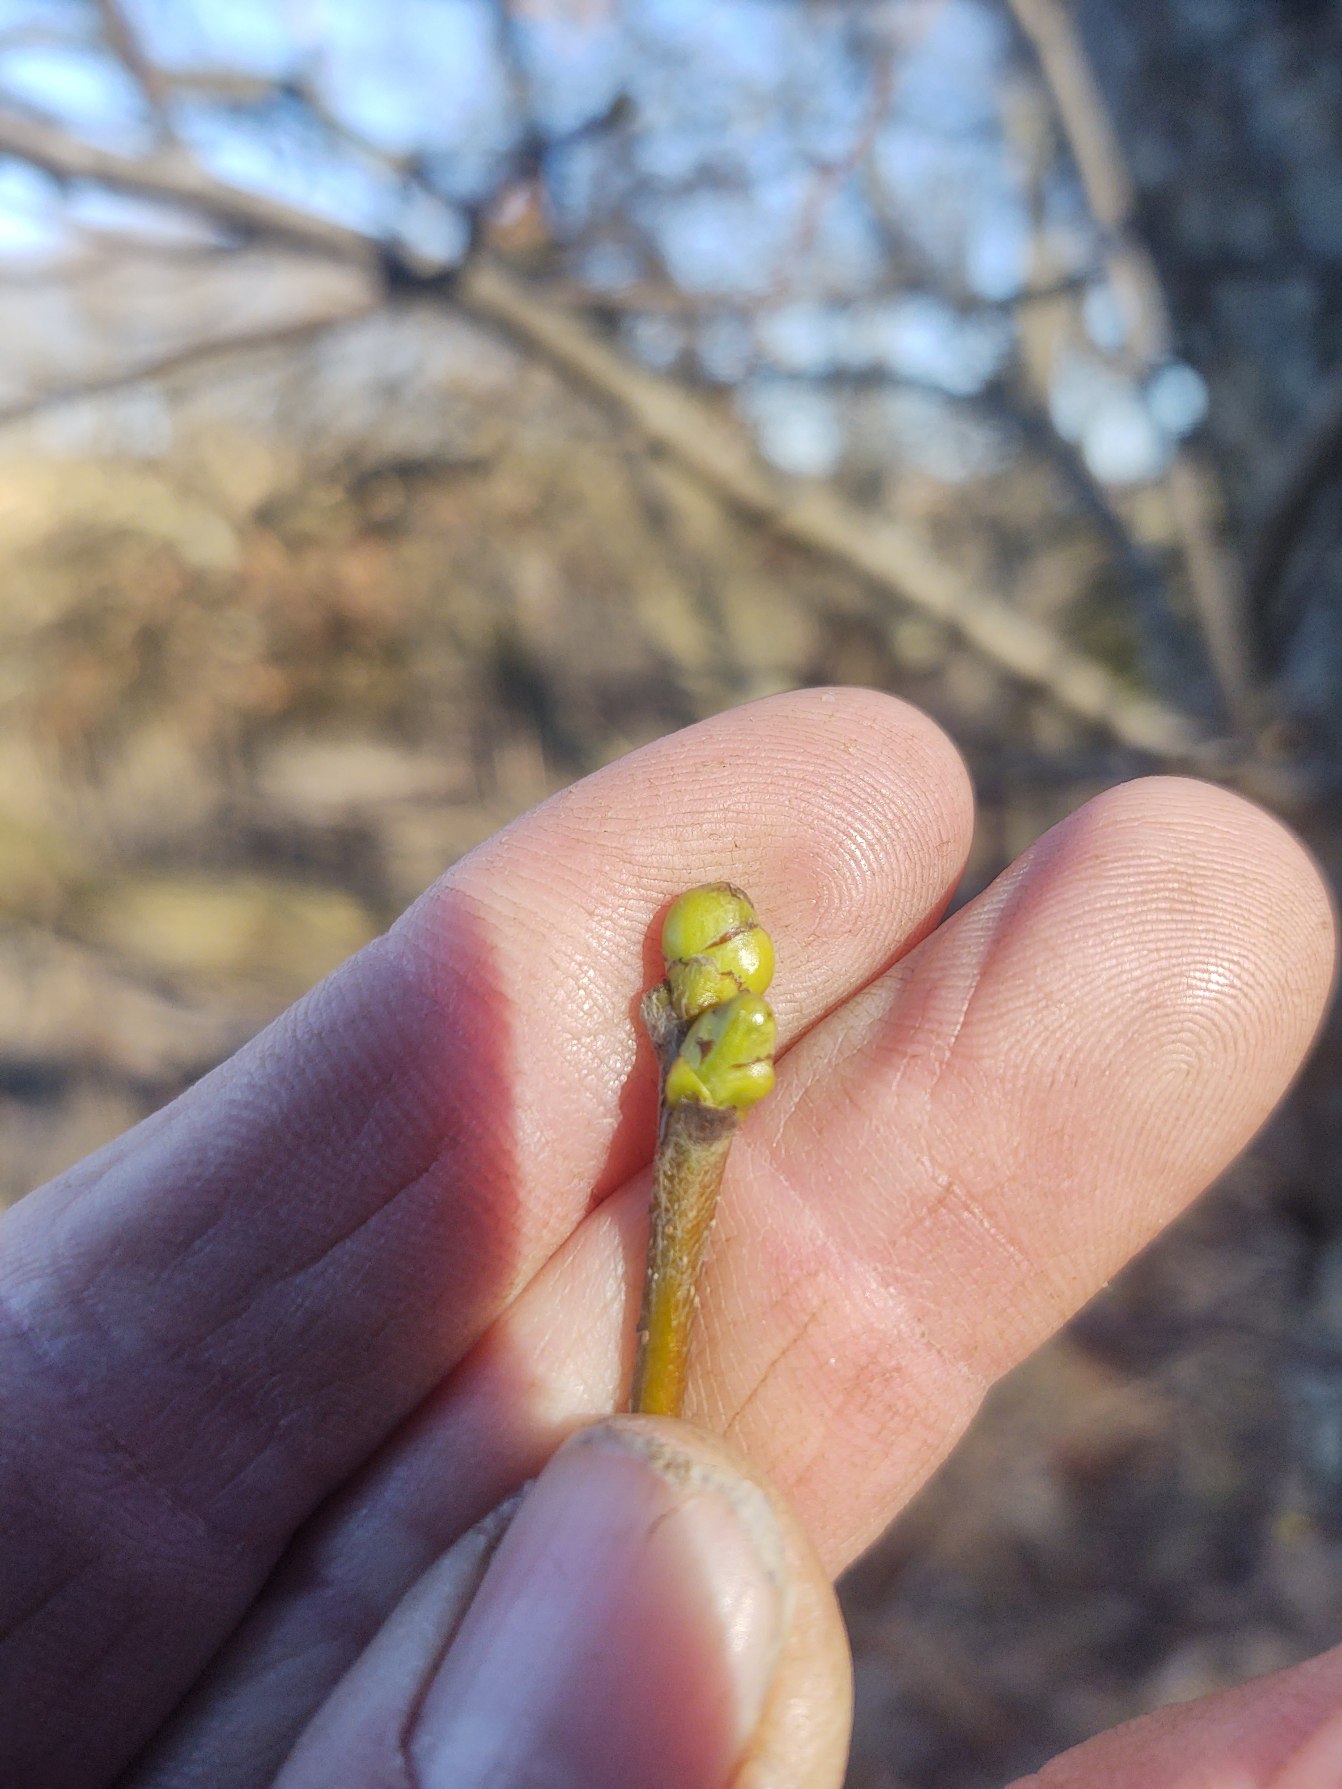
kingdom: Plantae
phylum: Tracheophyta
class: Magnoliopsida
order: Rosales
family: Rosaceae
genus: Torminalis
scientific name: Torminalis glaberrima
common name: Tarmvrid-røn
